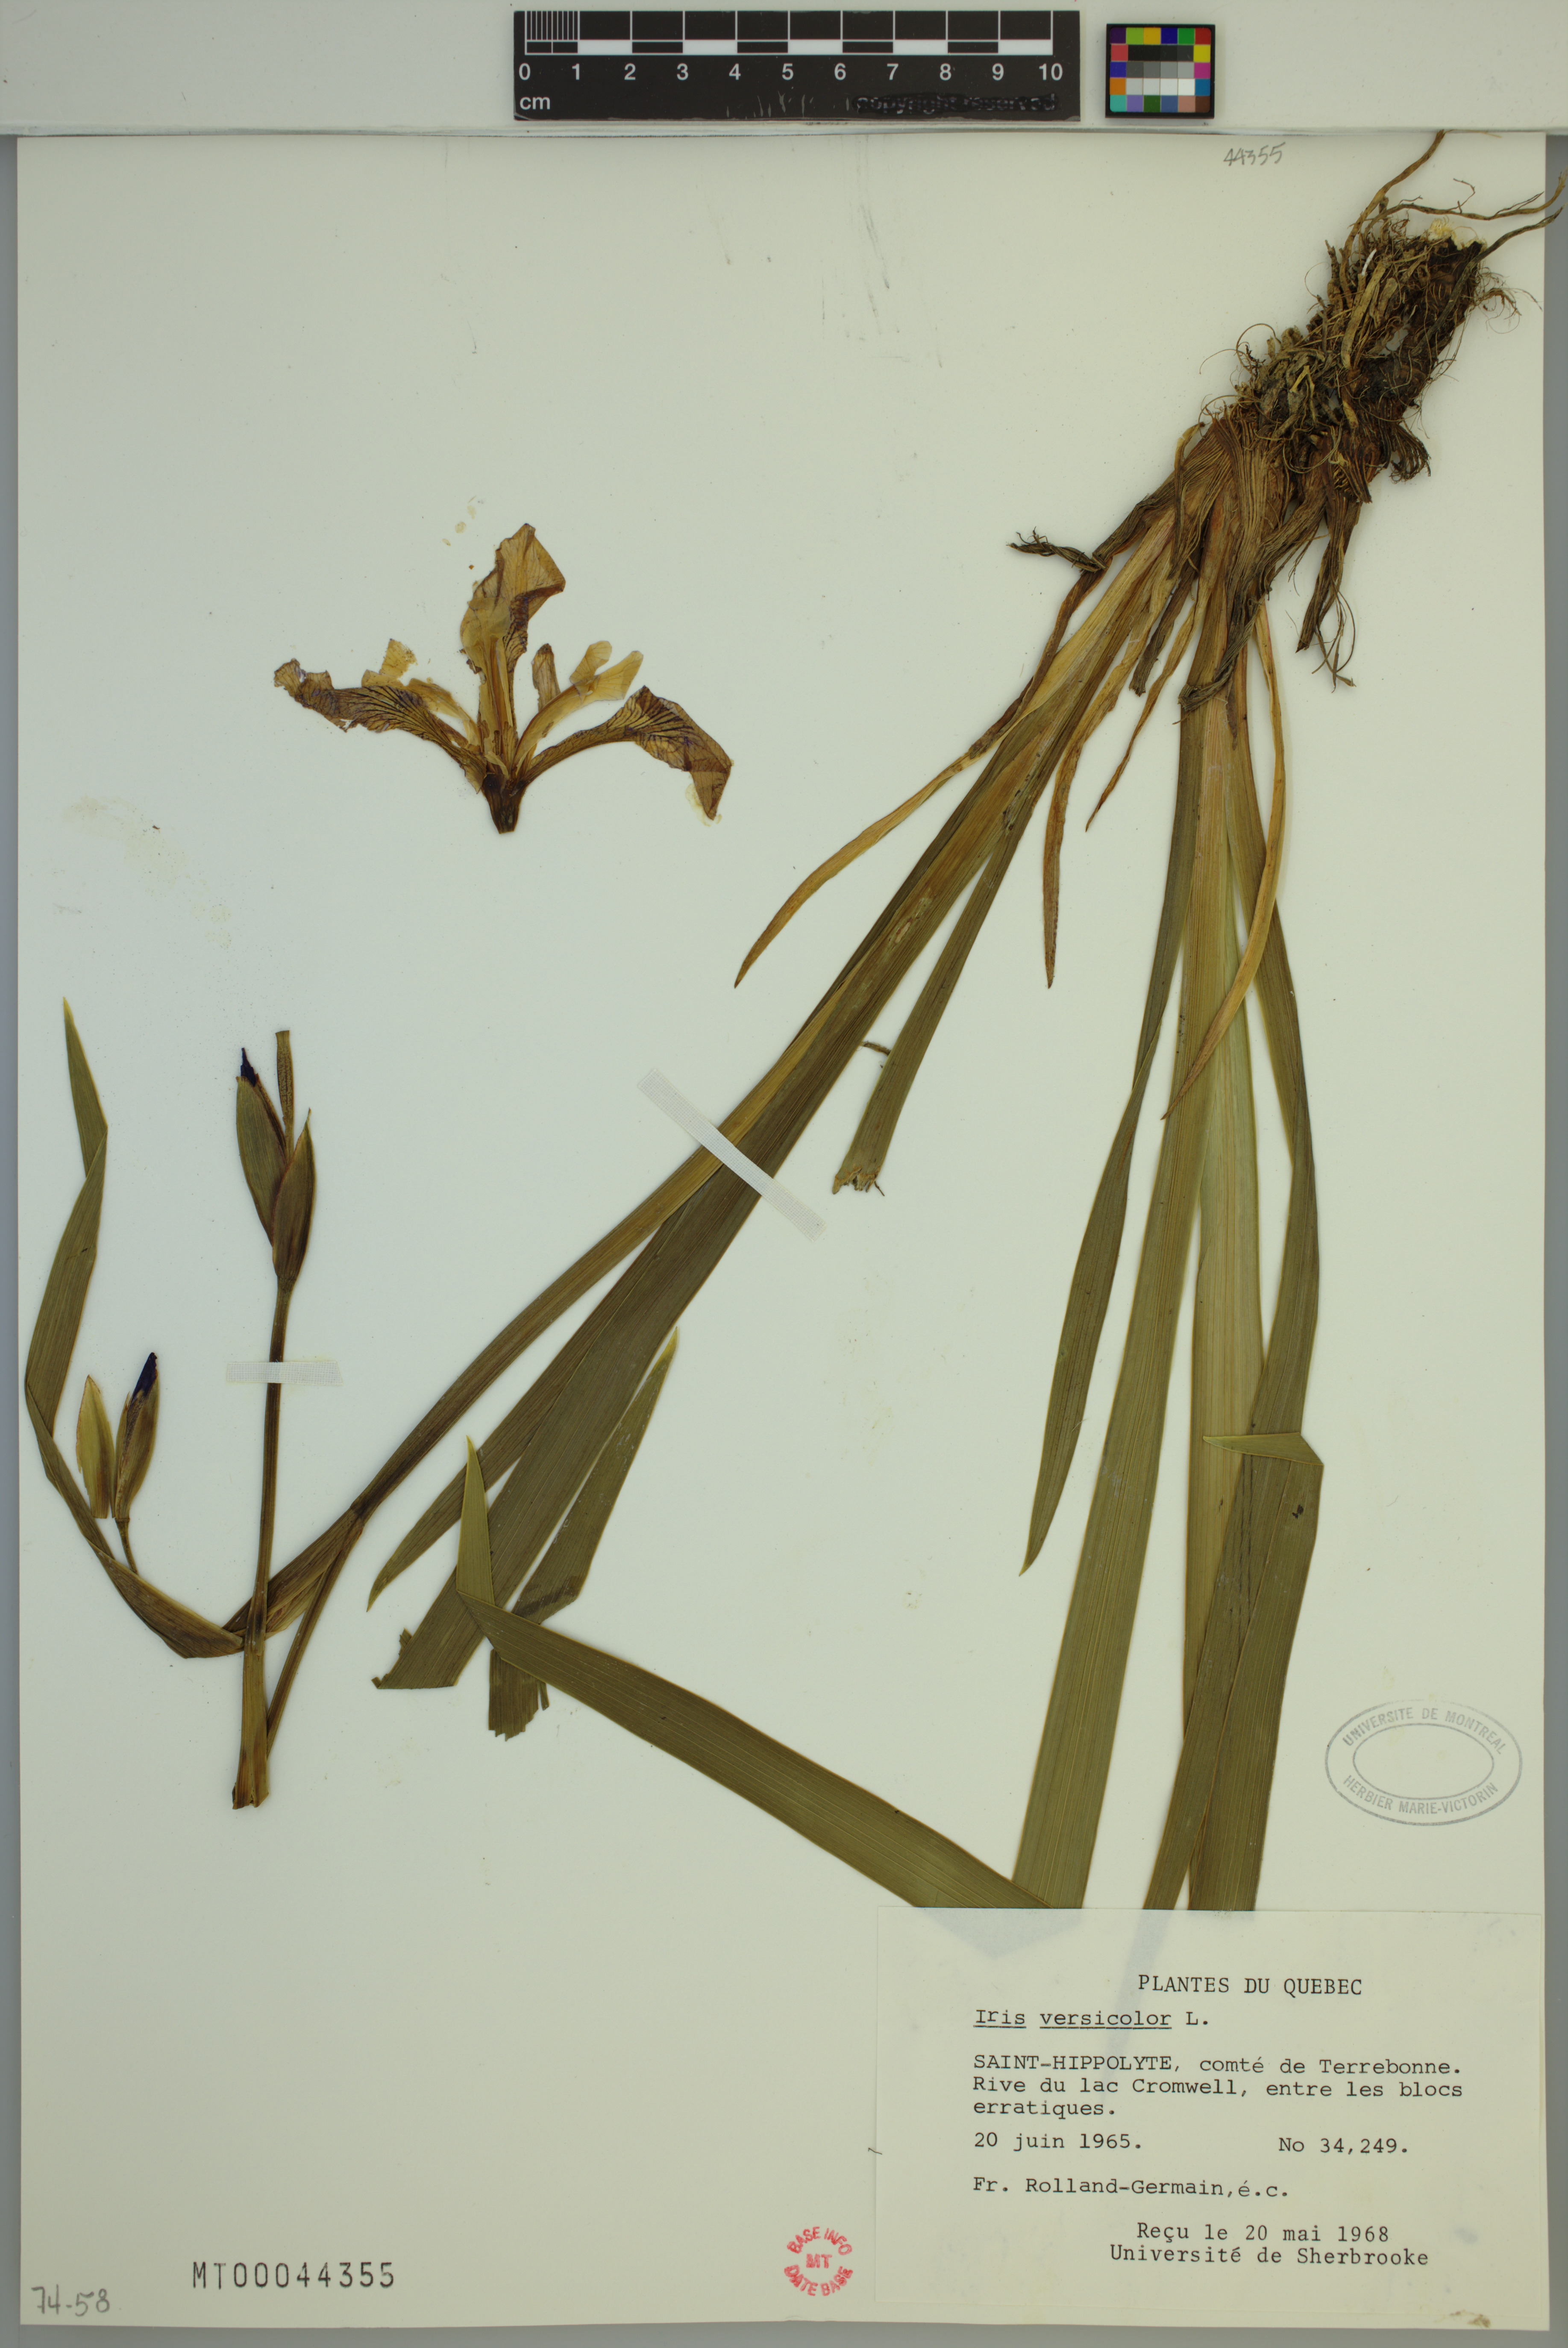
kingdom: Plantae
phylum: Tracheophyta
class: Liliopsida
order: Asparagales
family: Iridaceae
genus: Iris
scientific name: Iris versicolor
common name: Purple iris
